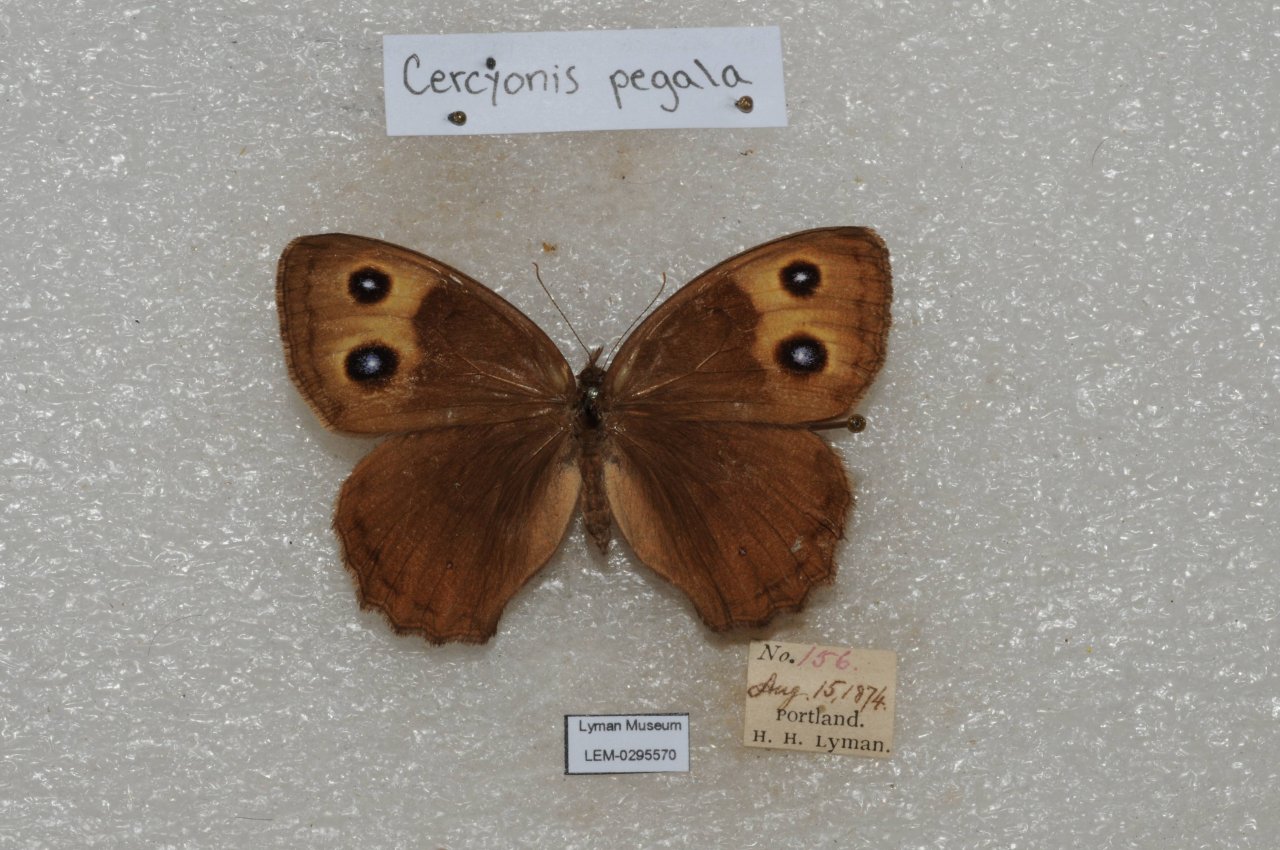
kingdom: Animalia
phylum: Arthropoda
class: Insecta
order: Lepidoptera
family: Nymphalidae
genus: Cercyonis
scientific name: Cercyonis pegala
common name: Common Wood-Nymph
